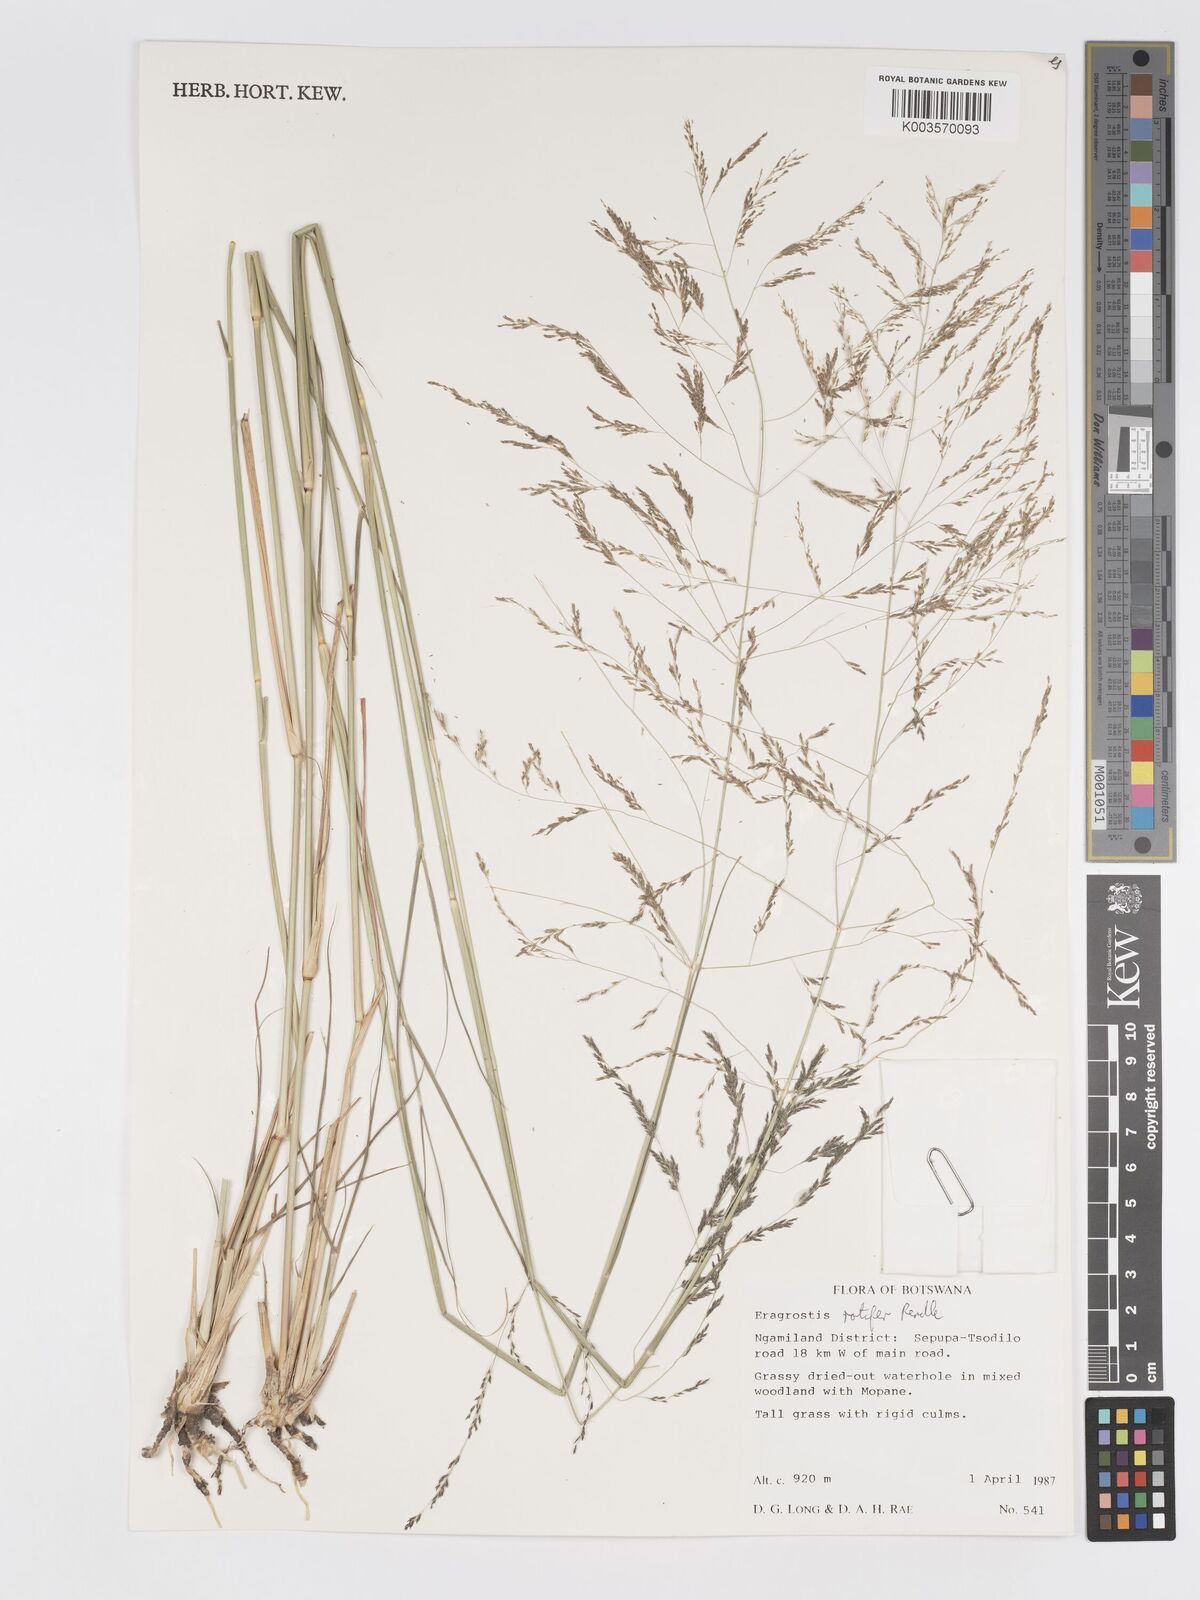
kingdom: Plantae
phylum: Tracheophyta
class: Liliopsida
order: Poales
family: Poaceae
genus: Eragrostis
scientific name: Eragrostis rotifer
